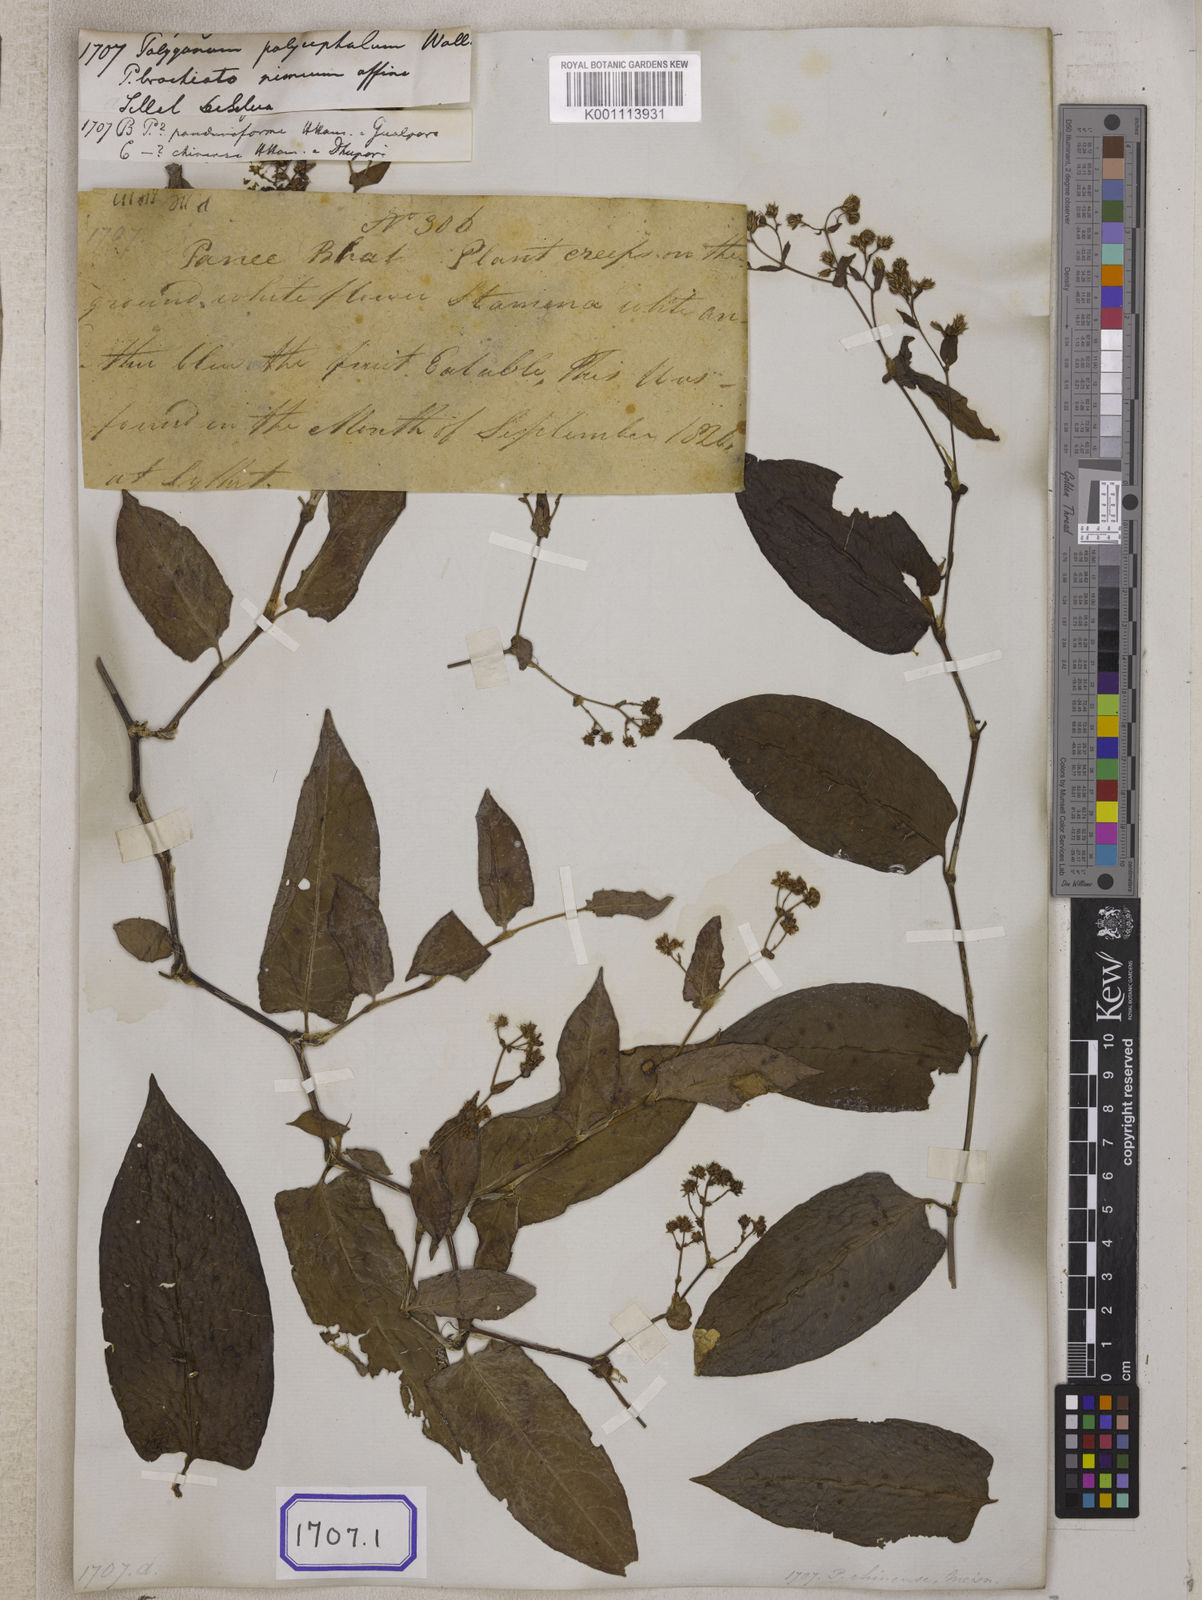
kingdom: Plantae
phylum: Tracheophyta
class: Magnoliopsida
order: Caryophyllales
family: Polygonaceae
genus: Persicaria
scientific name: Persicaria chinensis
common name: Chinese knotweed
